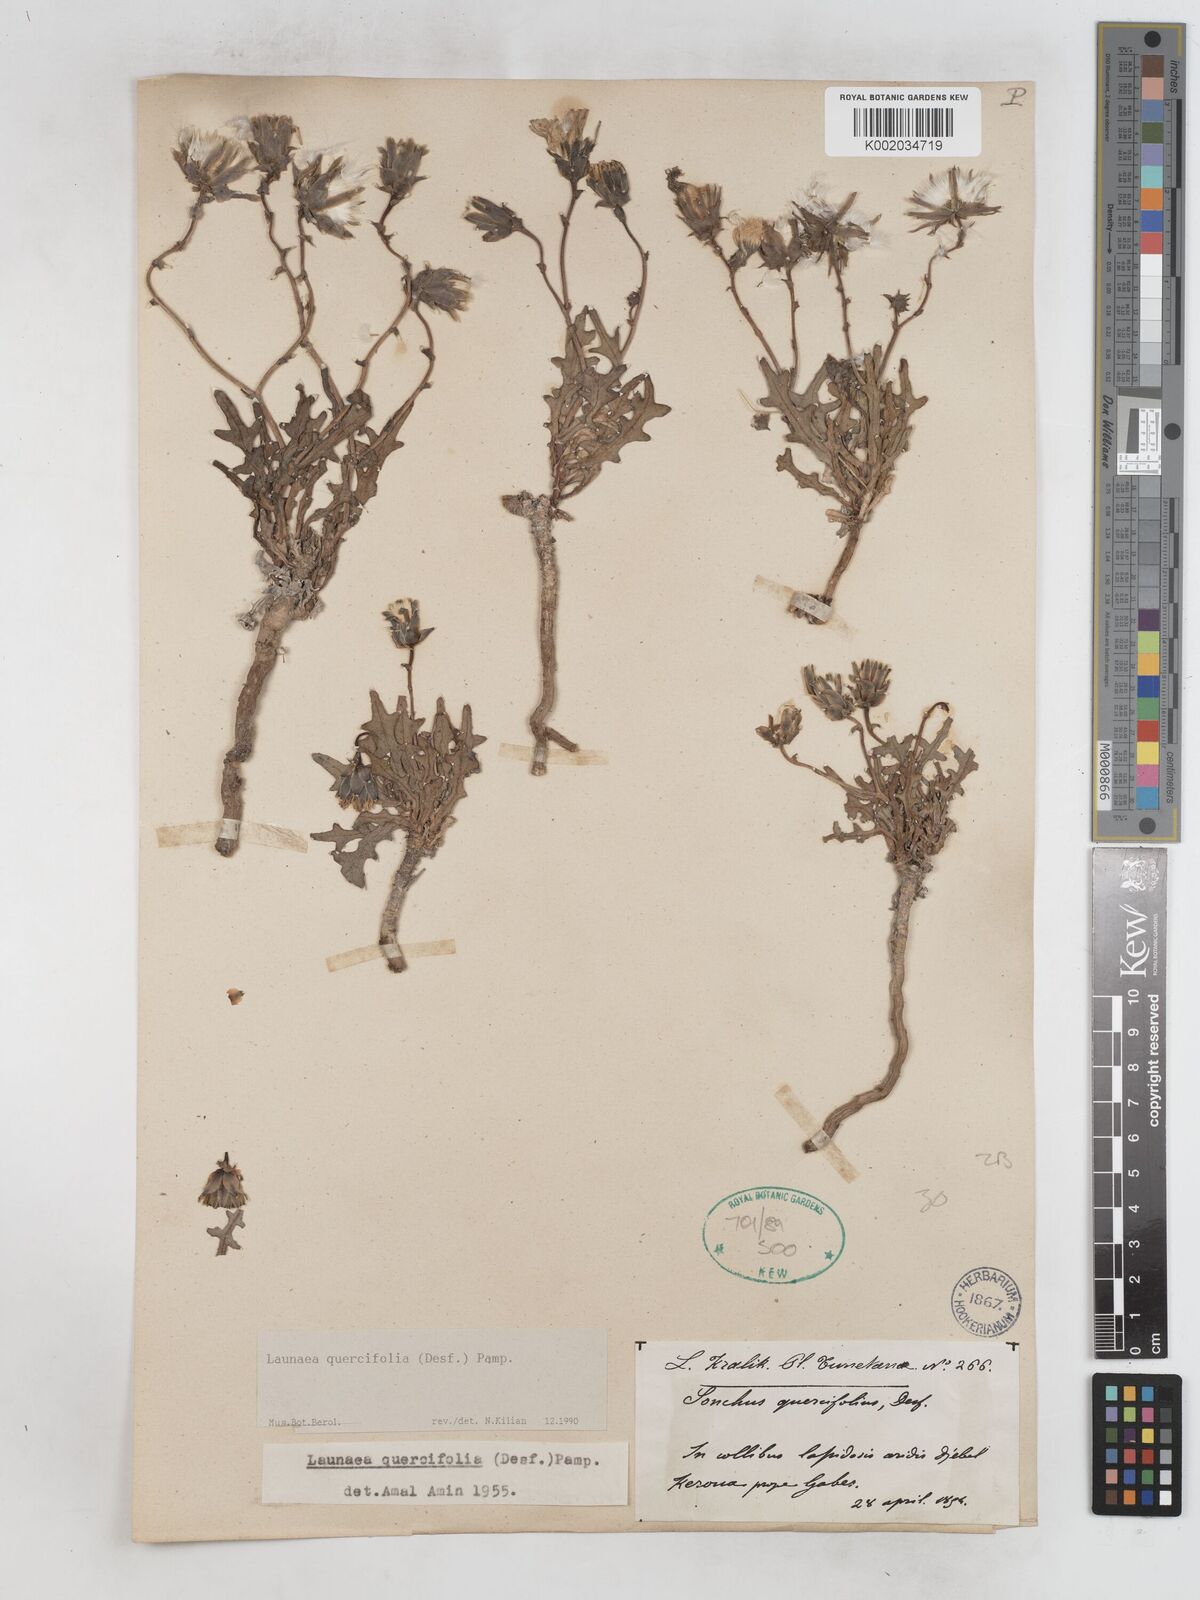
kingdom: Plantae
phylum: Tracheophyta
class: Magnoliopsida
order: Asterales
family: Asteraceae
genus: Launaea
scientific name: Launaea quercifolia
